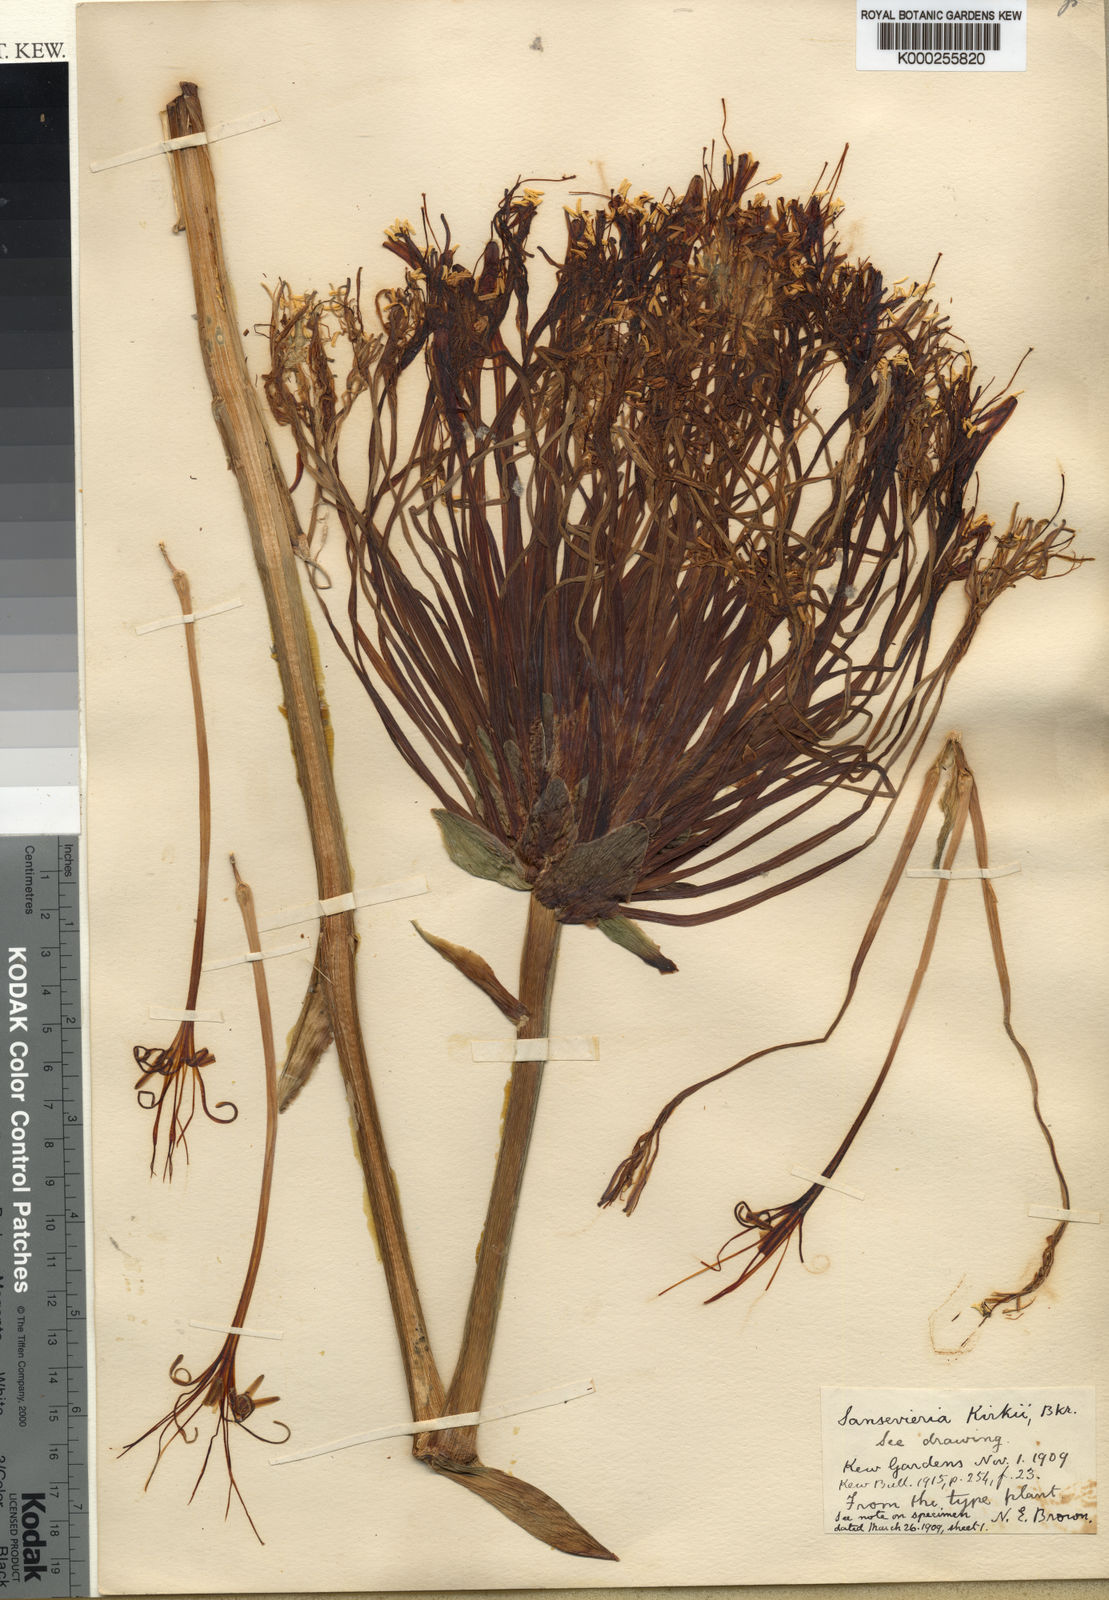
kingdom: Plantae
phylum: Tracheophyta
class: Liliopsida
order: Asparagales
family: Asparagaceae
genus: Dracaena
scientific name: Dracaena pethera
